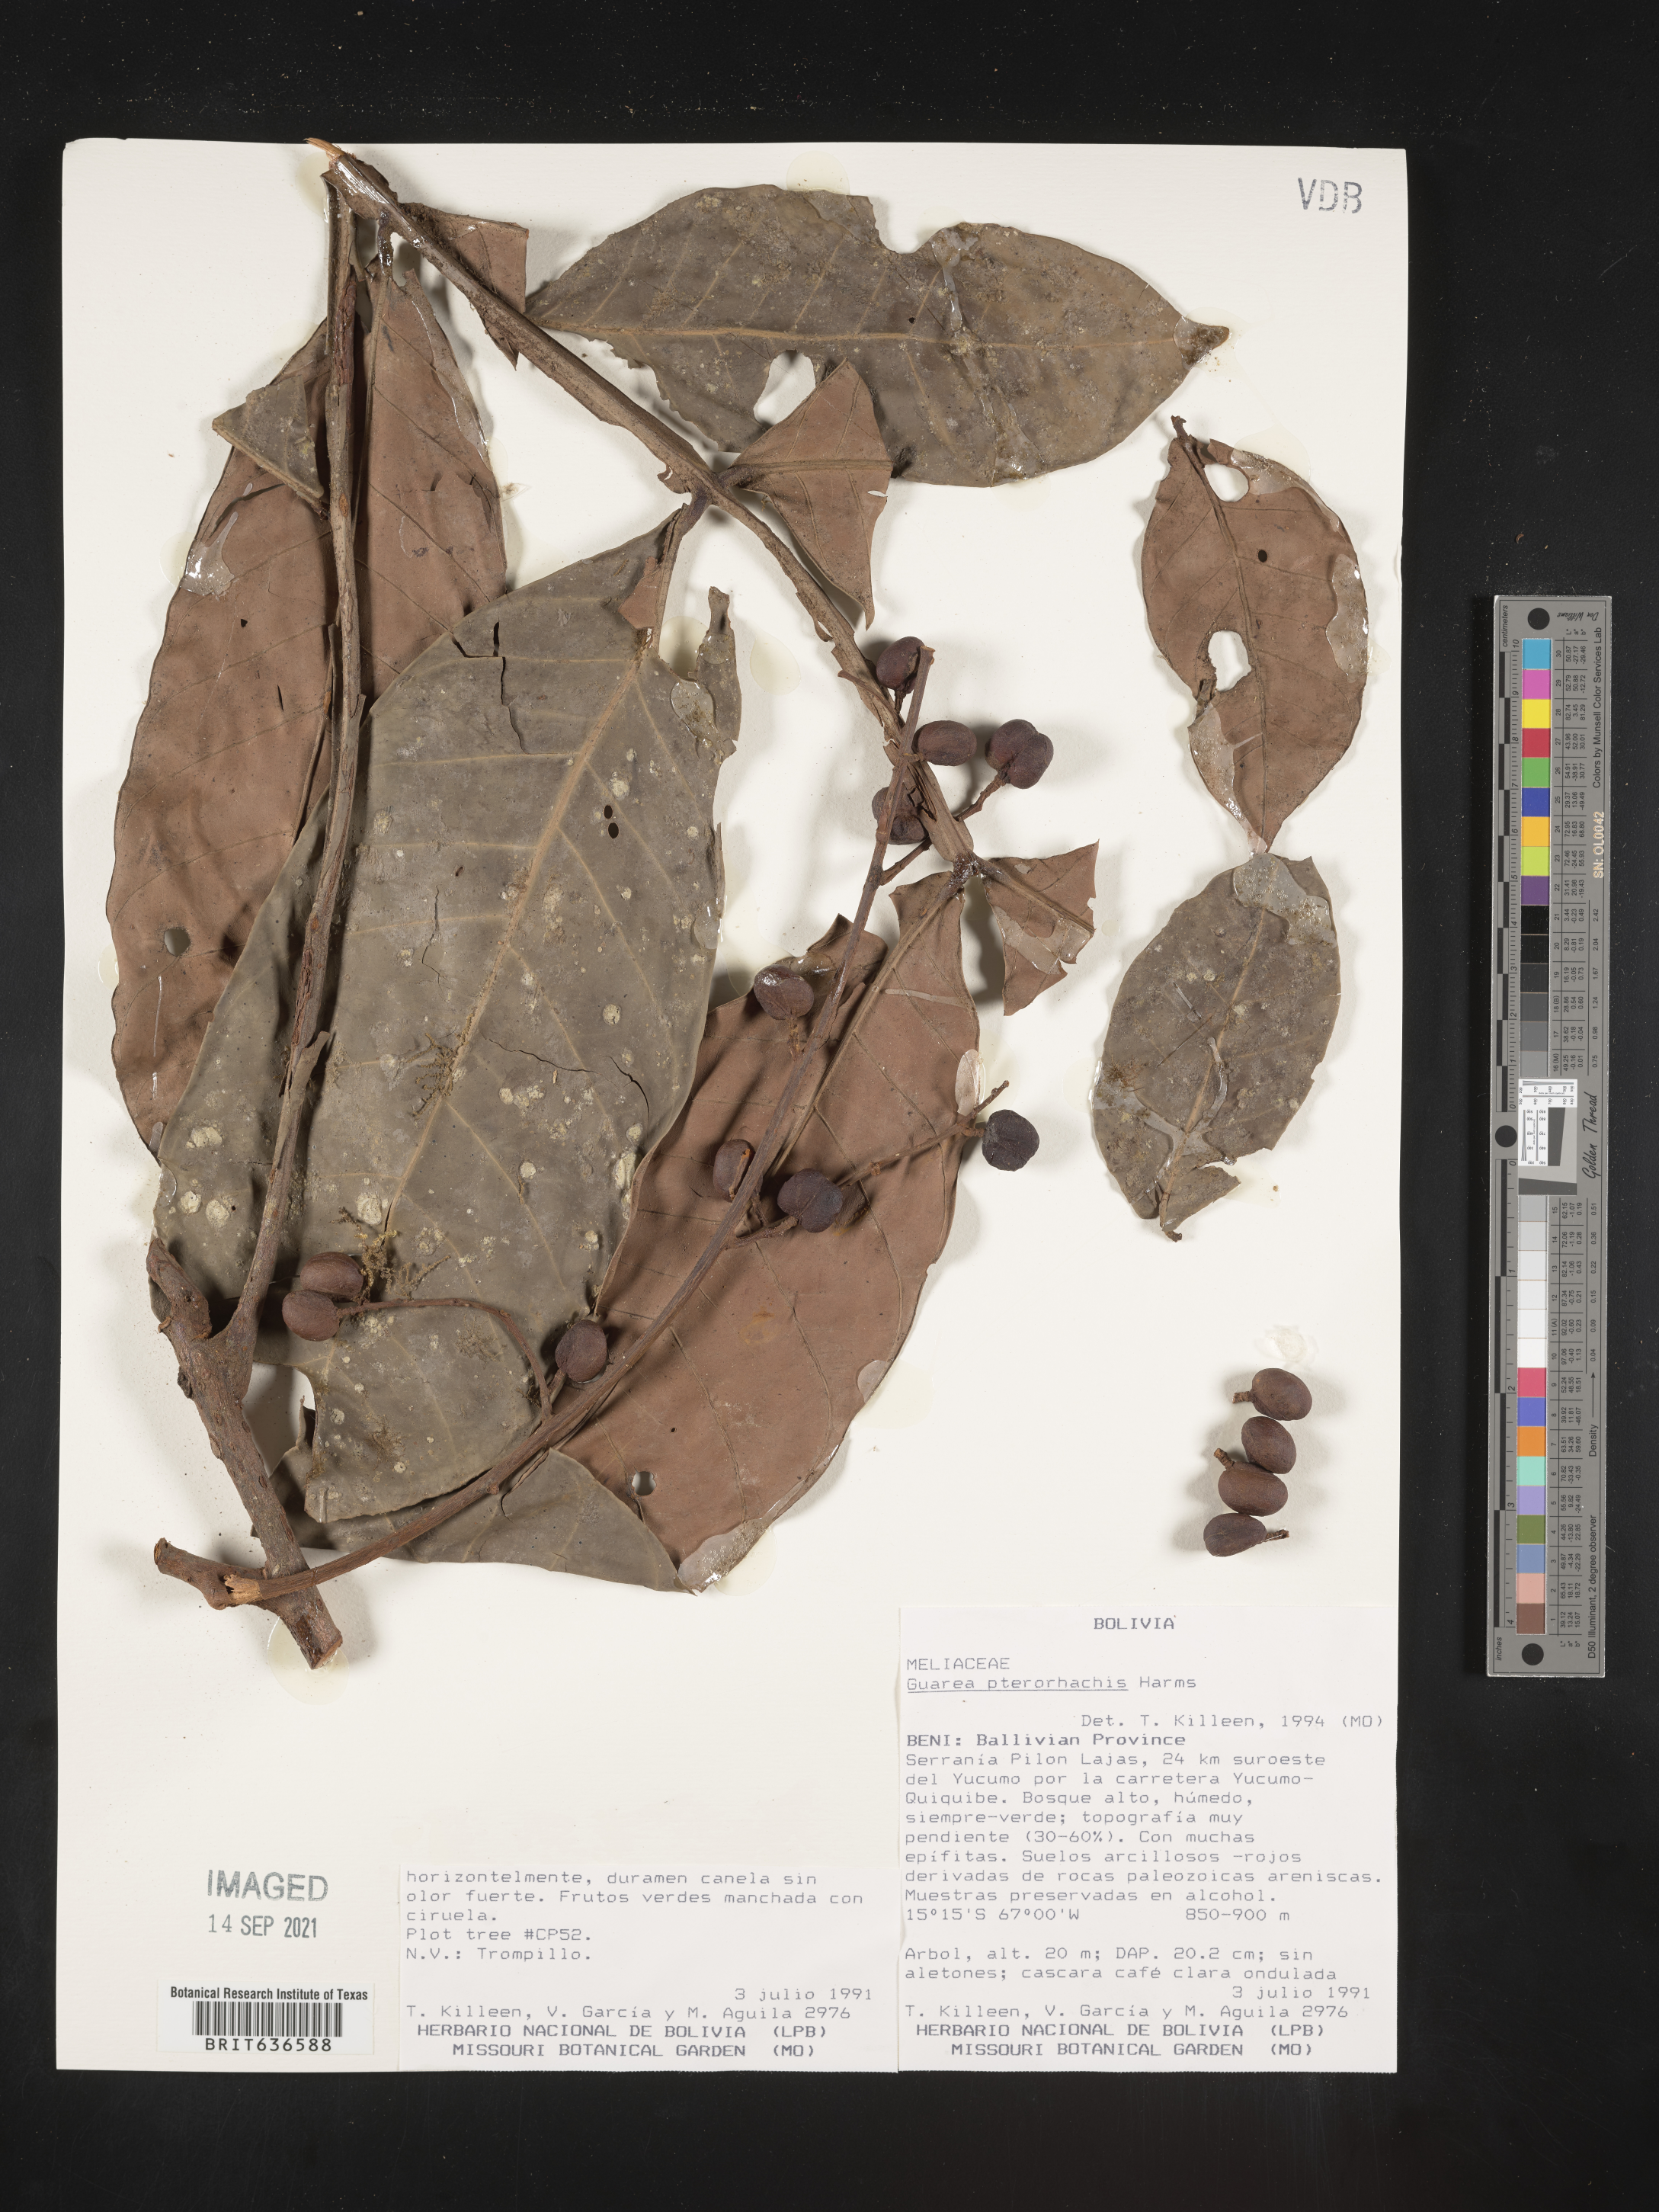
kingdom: Plantae
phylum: Tracheophyta
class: Magnoliopsida
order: Sapindales
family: Meliaceae
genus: Guarea
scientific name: Guarea
